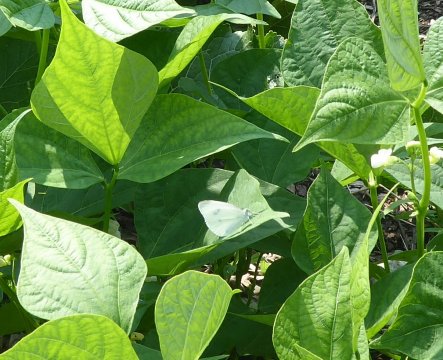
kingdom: Animalia
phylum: Arthropoda
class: Insecta
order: Lepidoptera
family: Pieridae
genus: Pieris
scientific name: Pieris rapae
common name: Cabbage White
